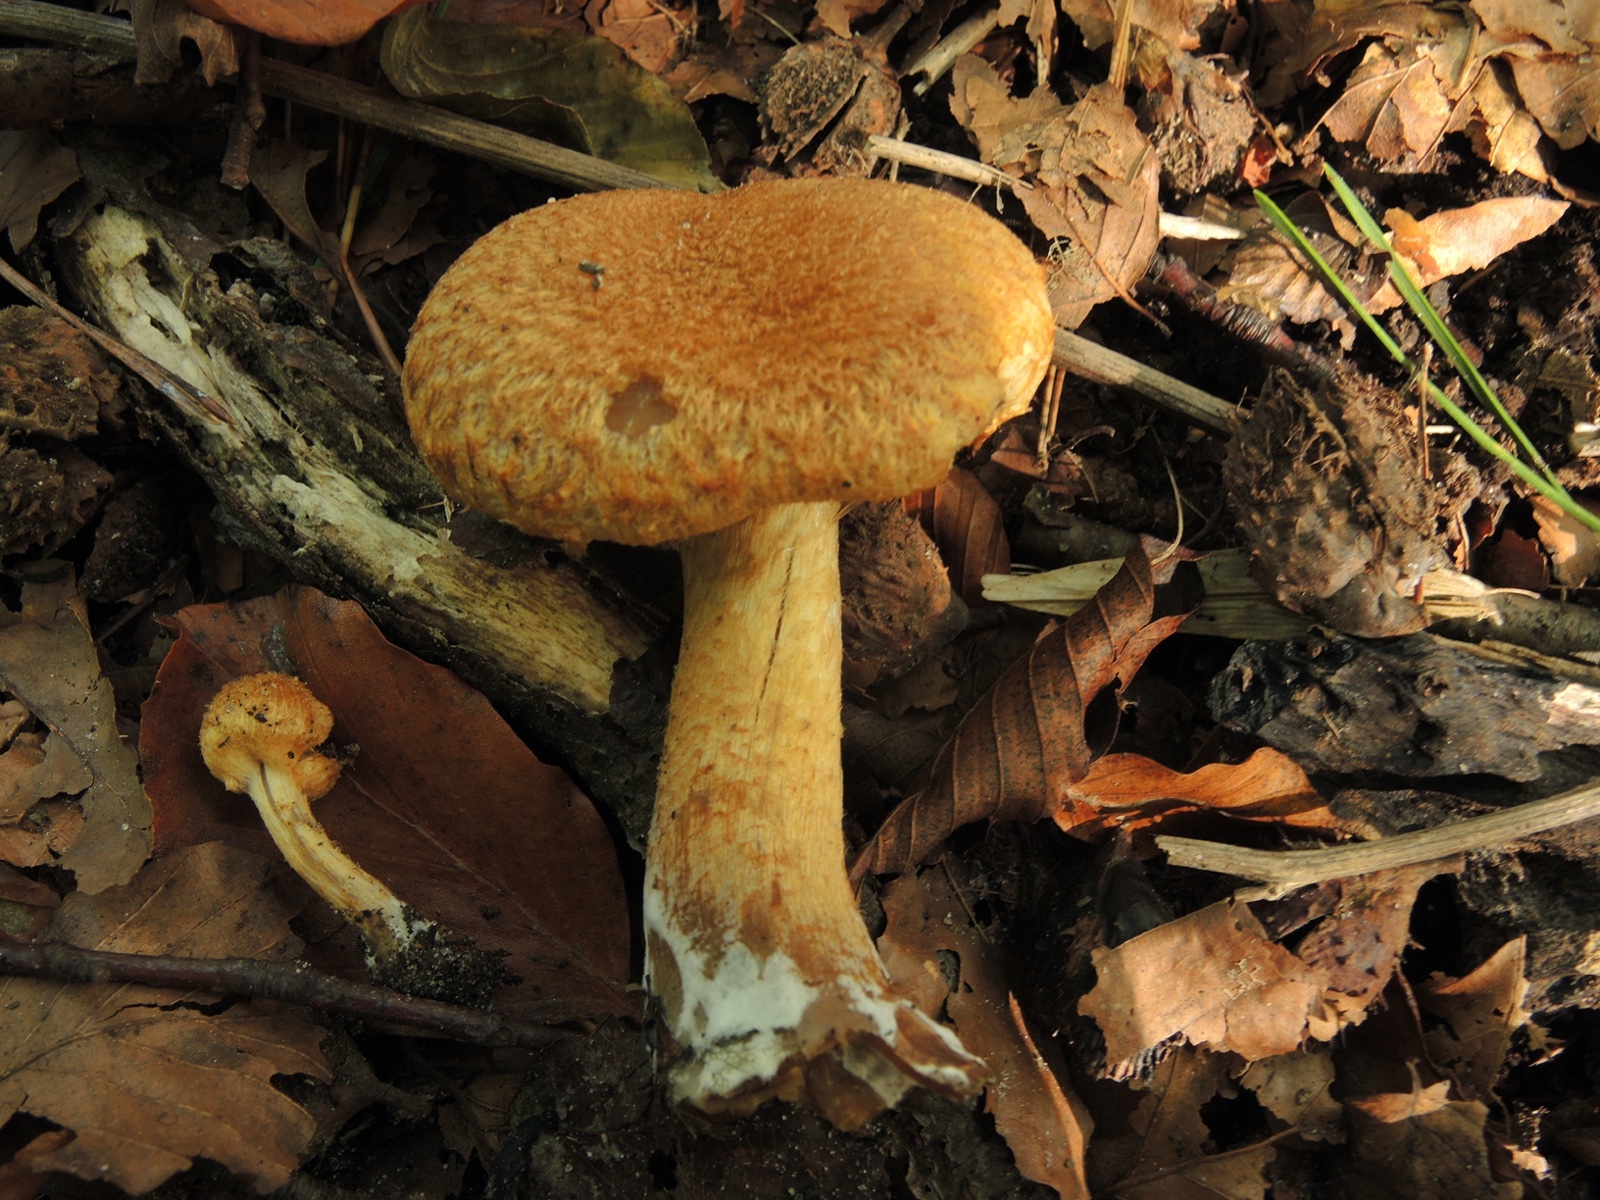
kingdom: Fungi
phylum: Basidiomycota
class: Agaricomycetes
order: Agaricales
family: Psathyrellaceae
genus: Lacrymaria
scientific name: Lacrymaria lacrymabunda
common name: grædende mørkhat
